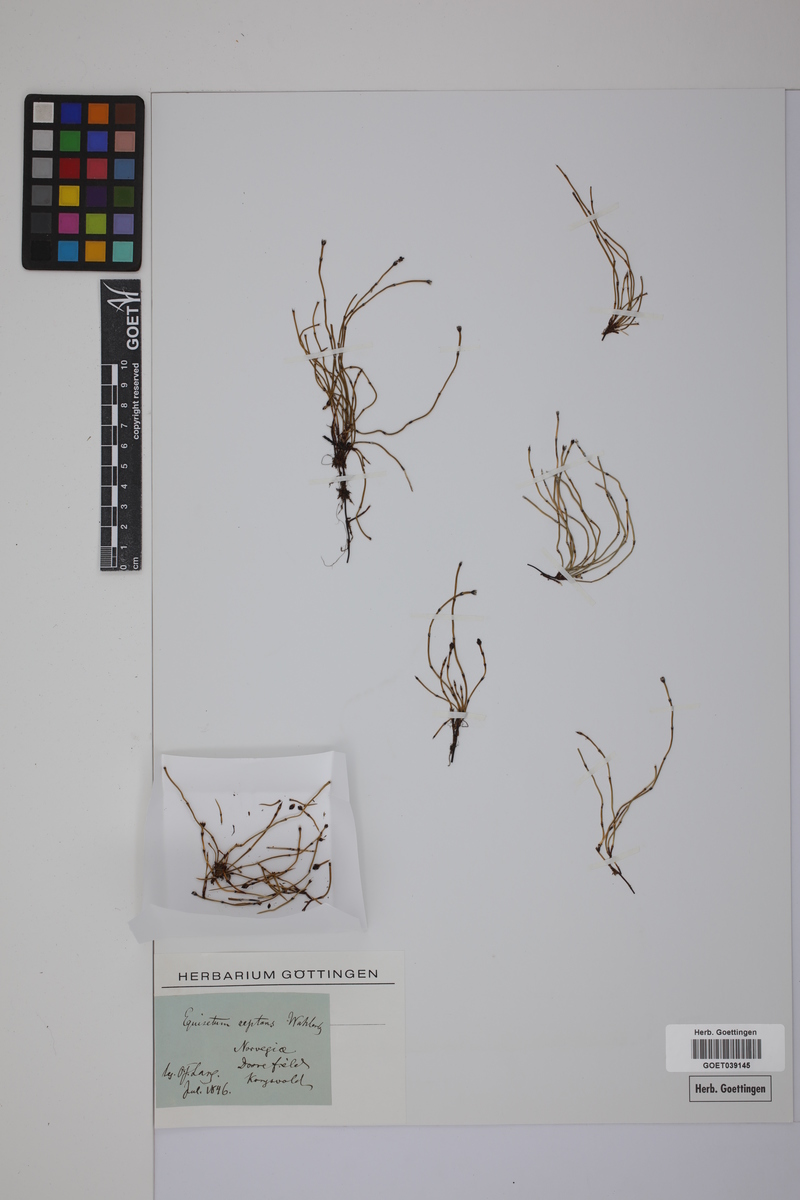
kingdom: Plantae
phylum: Tracheophyta
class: Polypodiopsida
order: Equisetales
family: Equisetaceae
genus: Equisetum
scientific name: Equisetum scirpoides
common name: Delicate horsetail
